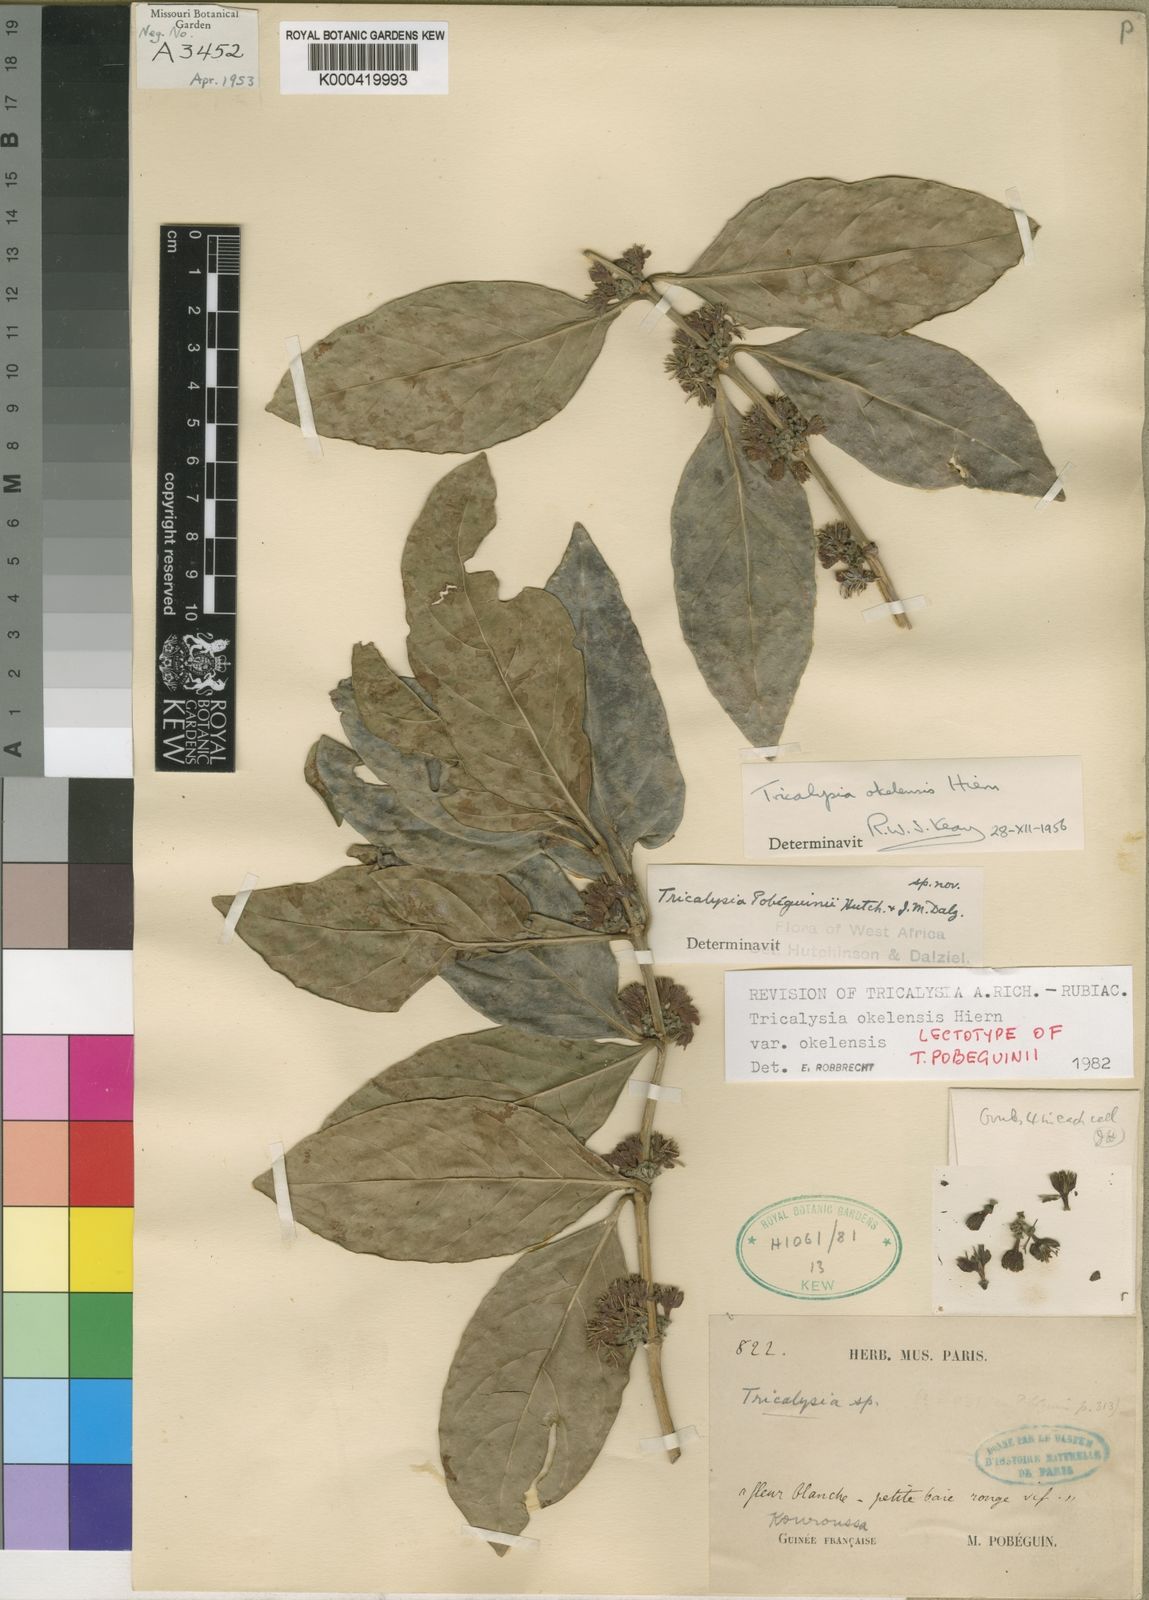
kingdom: Plantae
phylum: Tracheophyta
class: Magnoliopsida
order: Gentianales
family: Rubiaceae
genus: Tricalysia
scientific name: Tricalysia okelensis
